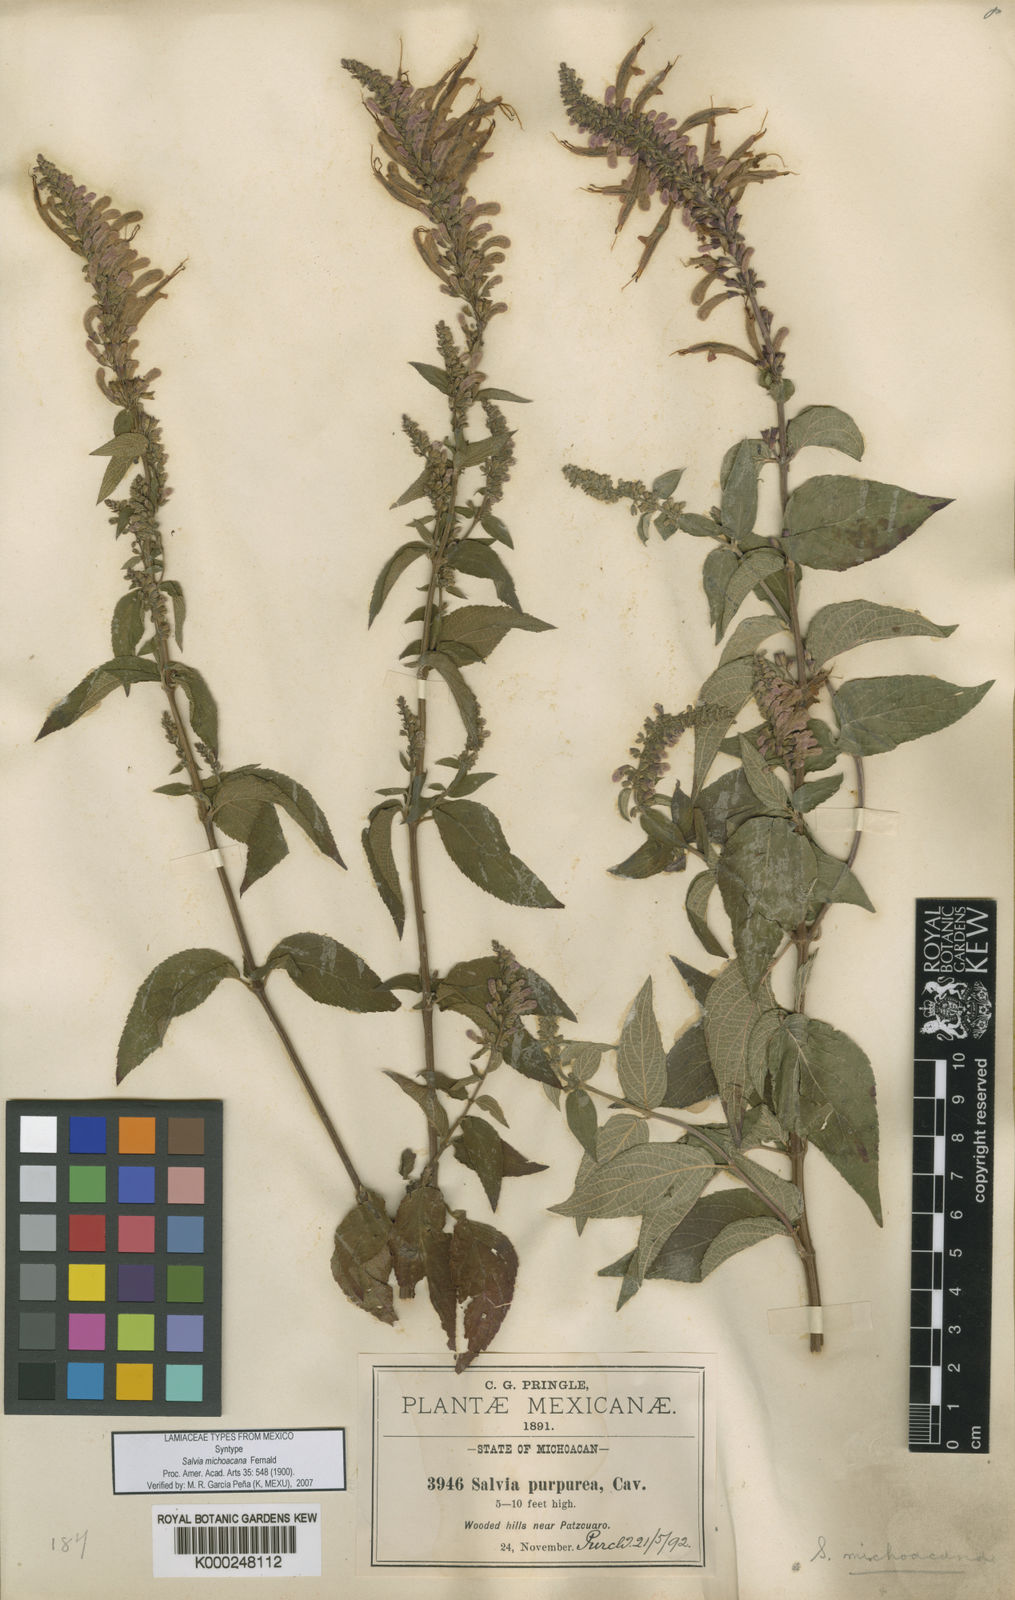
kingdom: Plantae
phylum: Tracheophyta
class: Magnoliopsida
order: Lamiales
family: Lamiaceae
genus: Salvia
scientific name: Salvia iodantha
